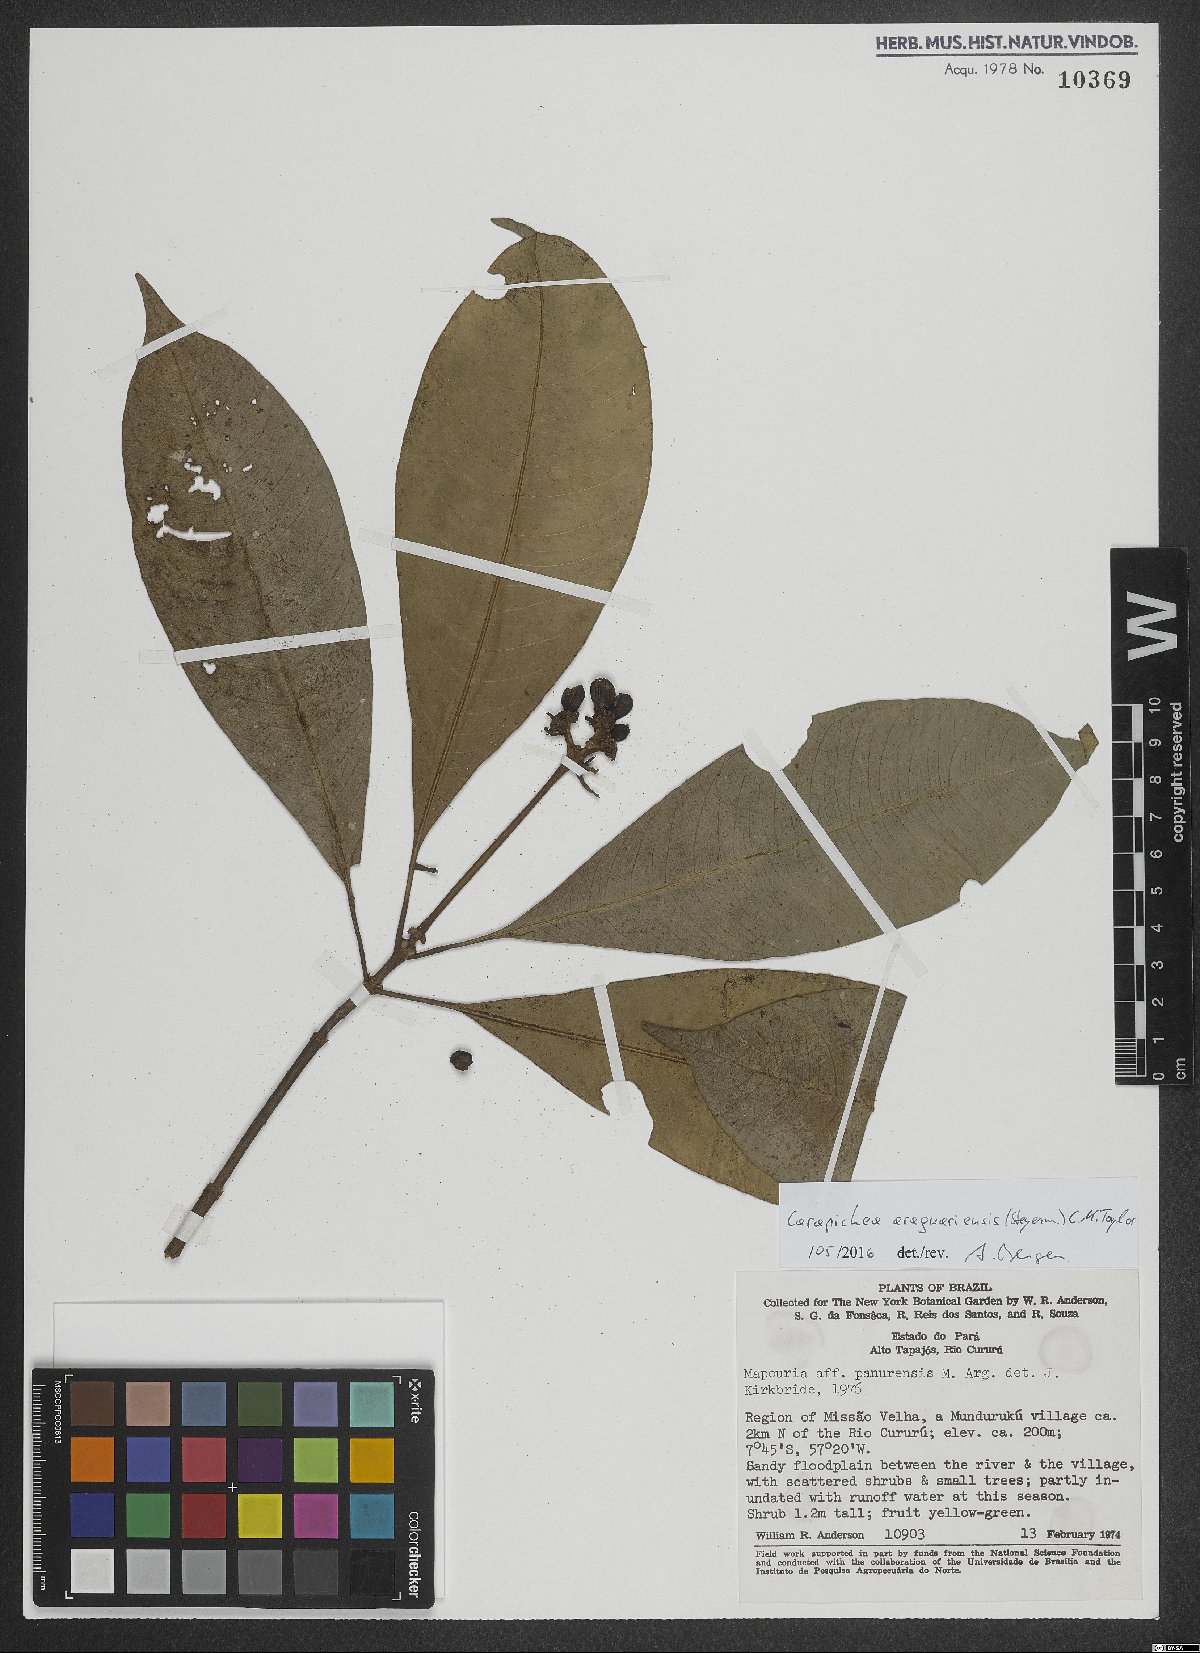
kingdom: Plantae
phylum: Tracheophyta
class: Magnoliopsida
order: Gentianales
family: Rubiaceae
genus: Carapichea
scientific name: Carapichea araguariensis
